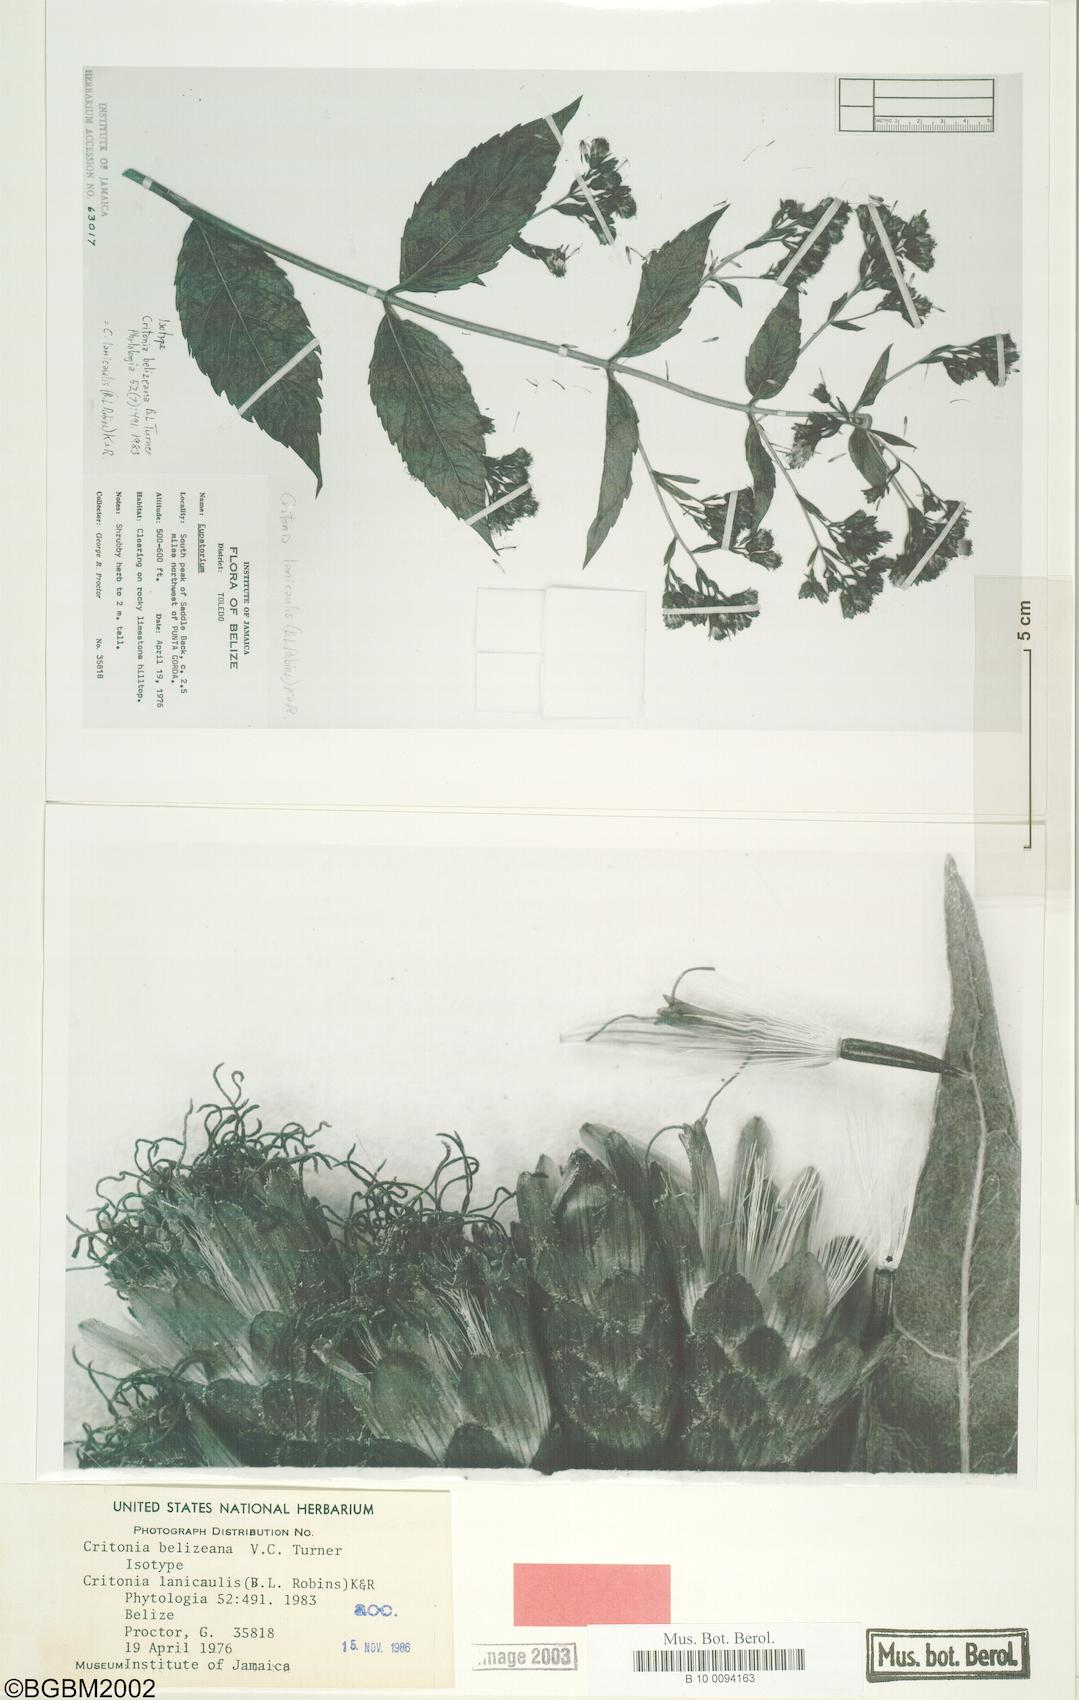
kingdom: Plantae
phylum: Tracheophyta
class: Magnoliopsida
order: Asterales
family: Asteraceae
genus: Bartlettina
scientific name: Bartlettina lanicaulis
